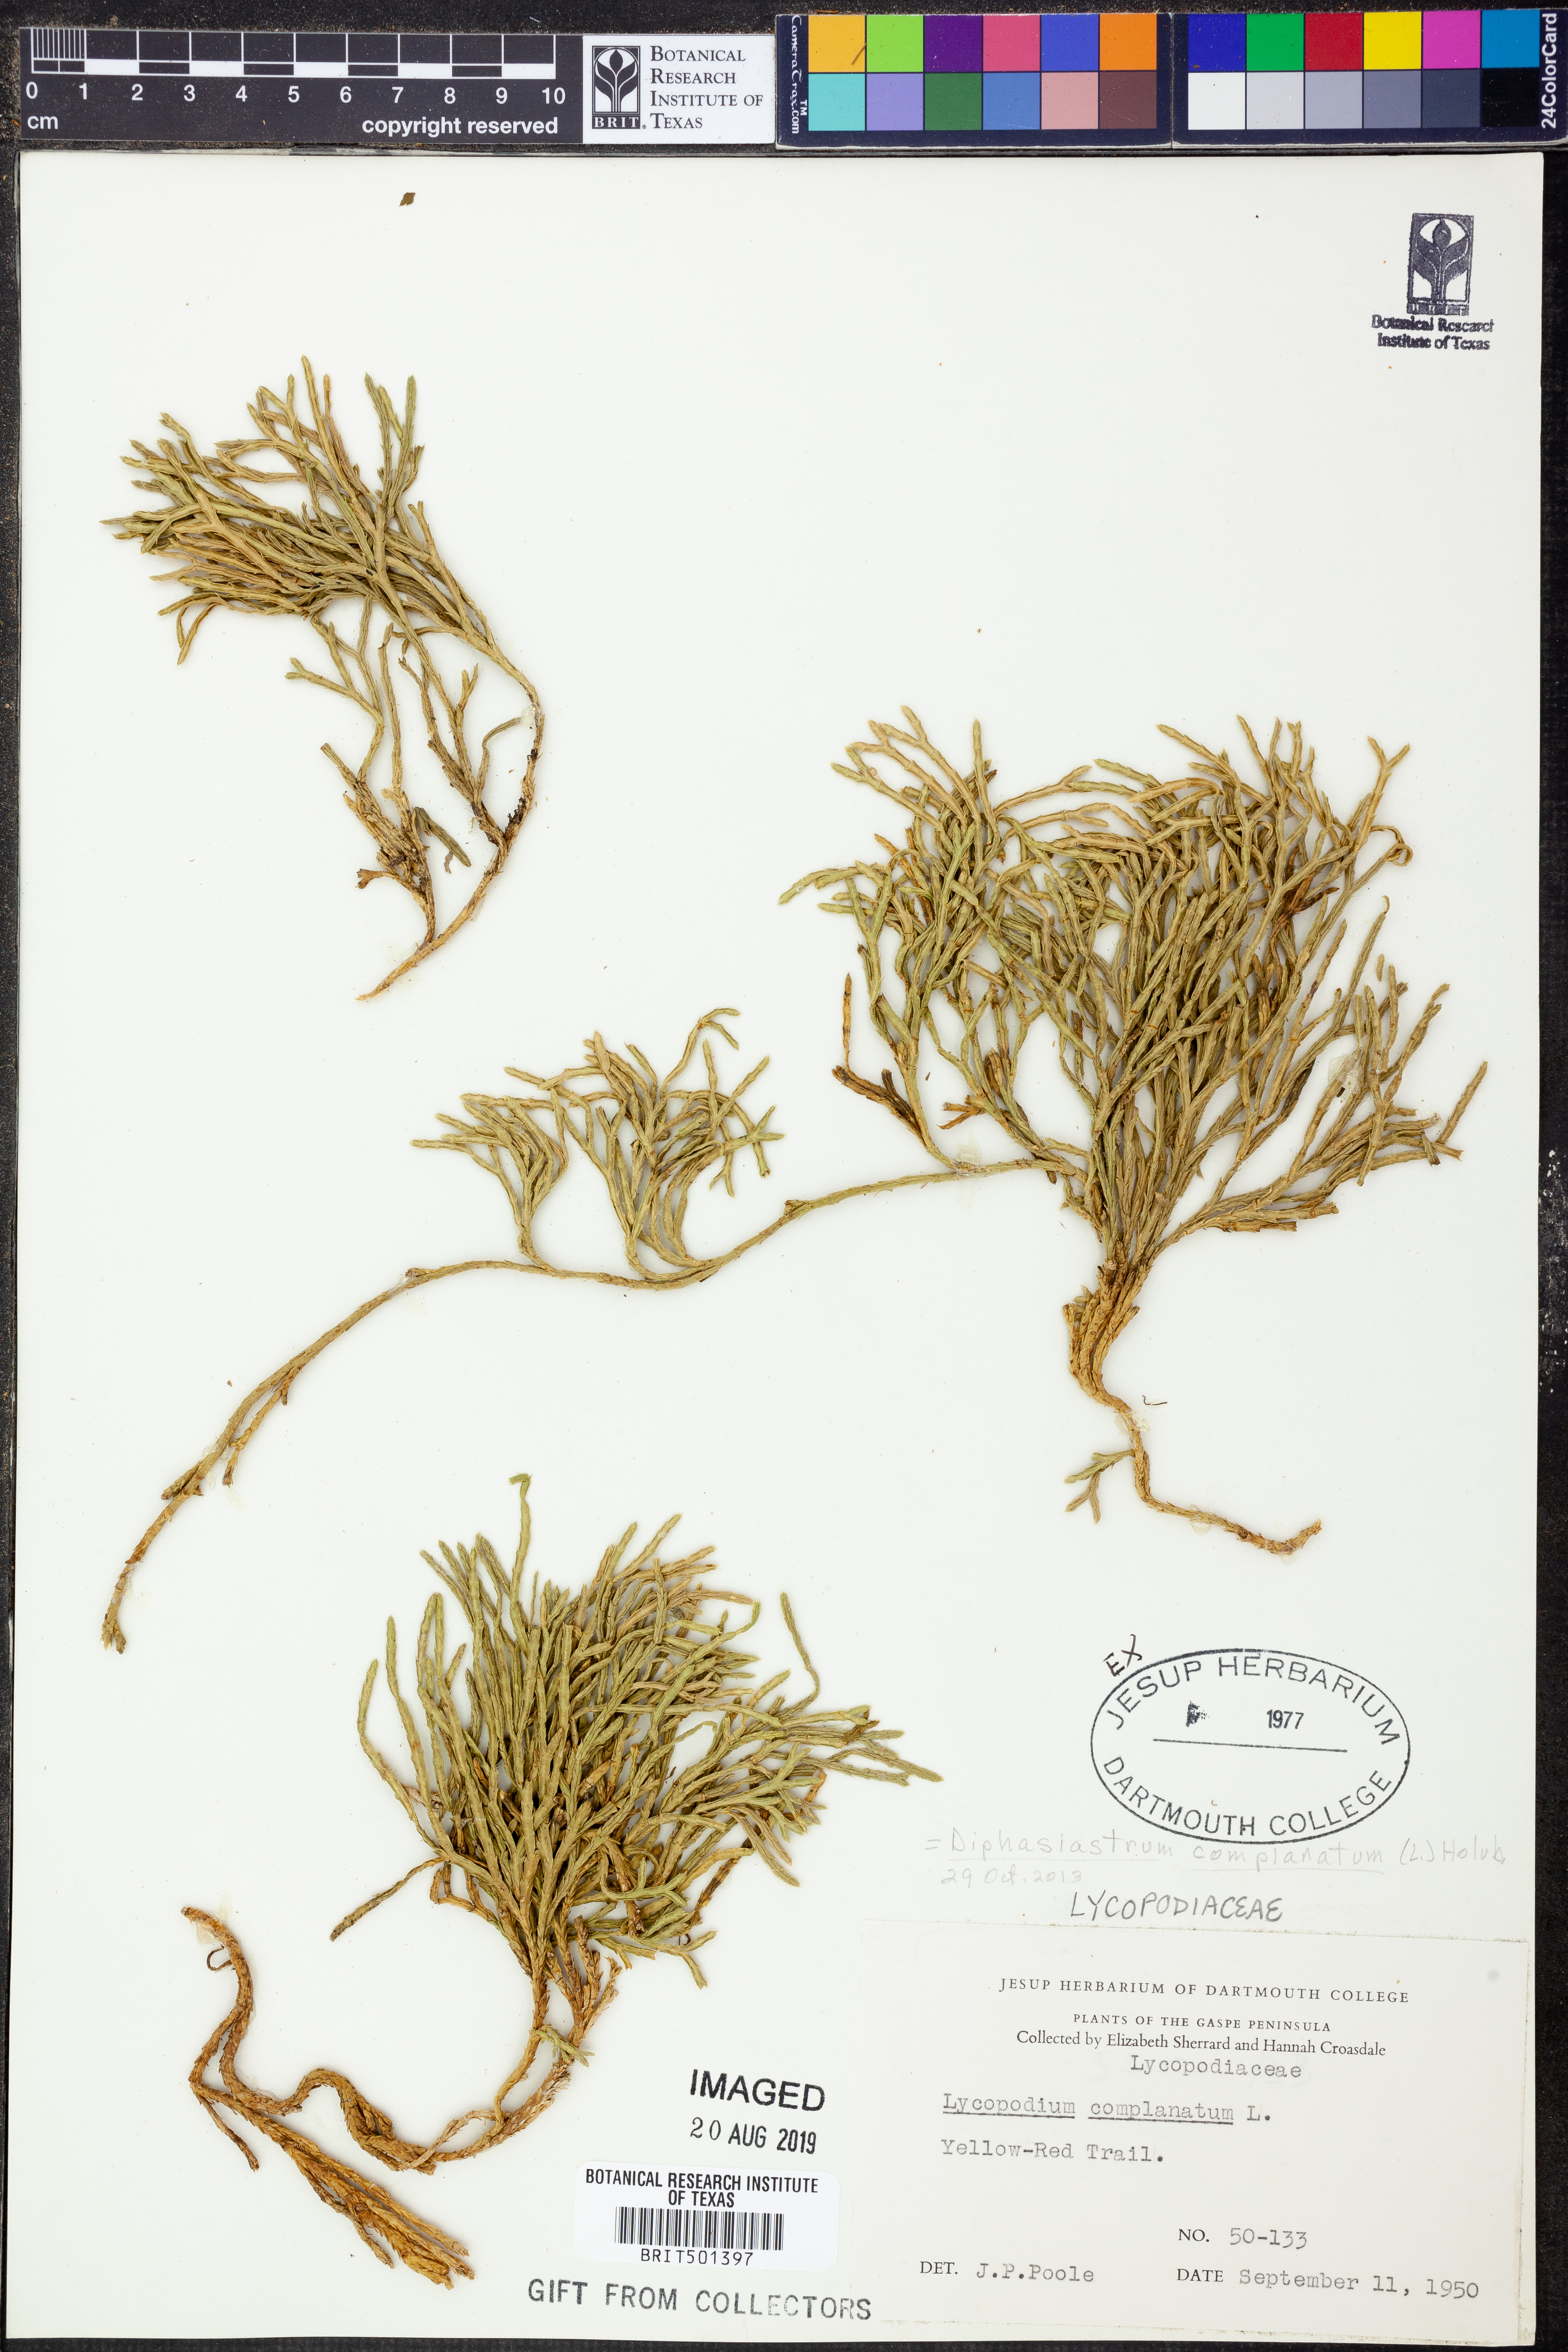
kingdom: Plantae
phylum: Tracheophyta
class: Lycopodiopsida
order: Lycopodiales
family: Lycopodiaceae
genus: Diphasiastrum
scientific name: Diphasiastrum complanatum
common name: Northern running-pine
